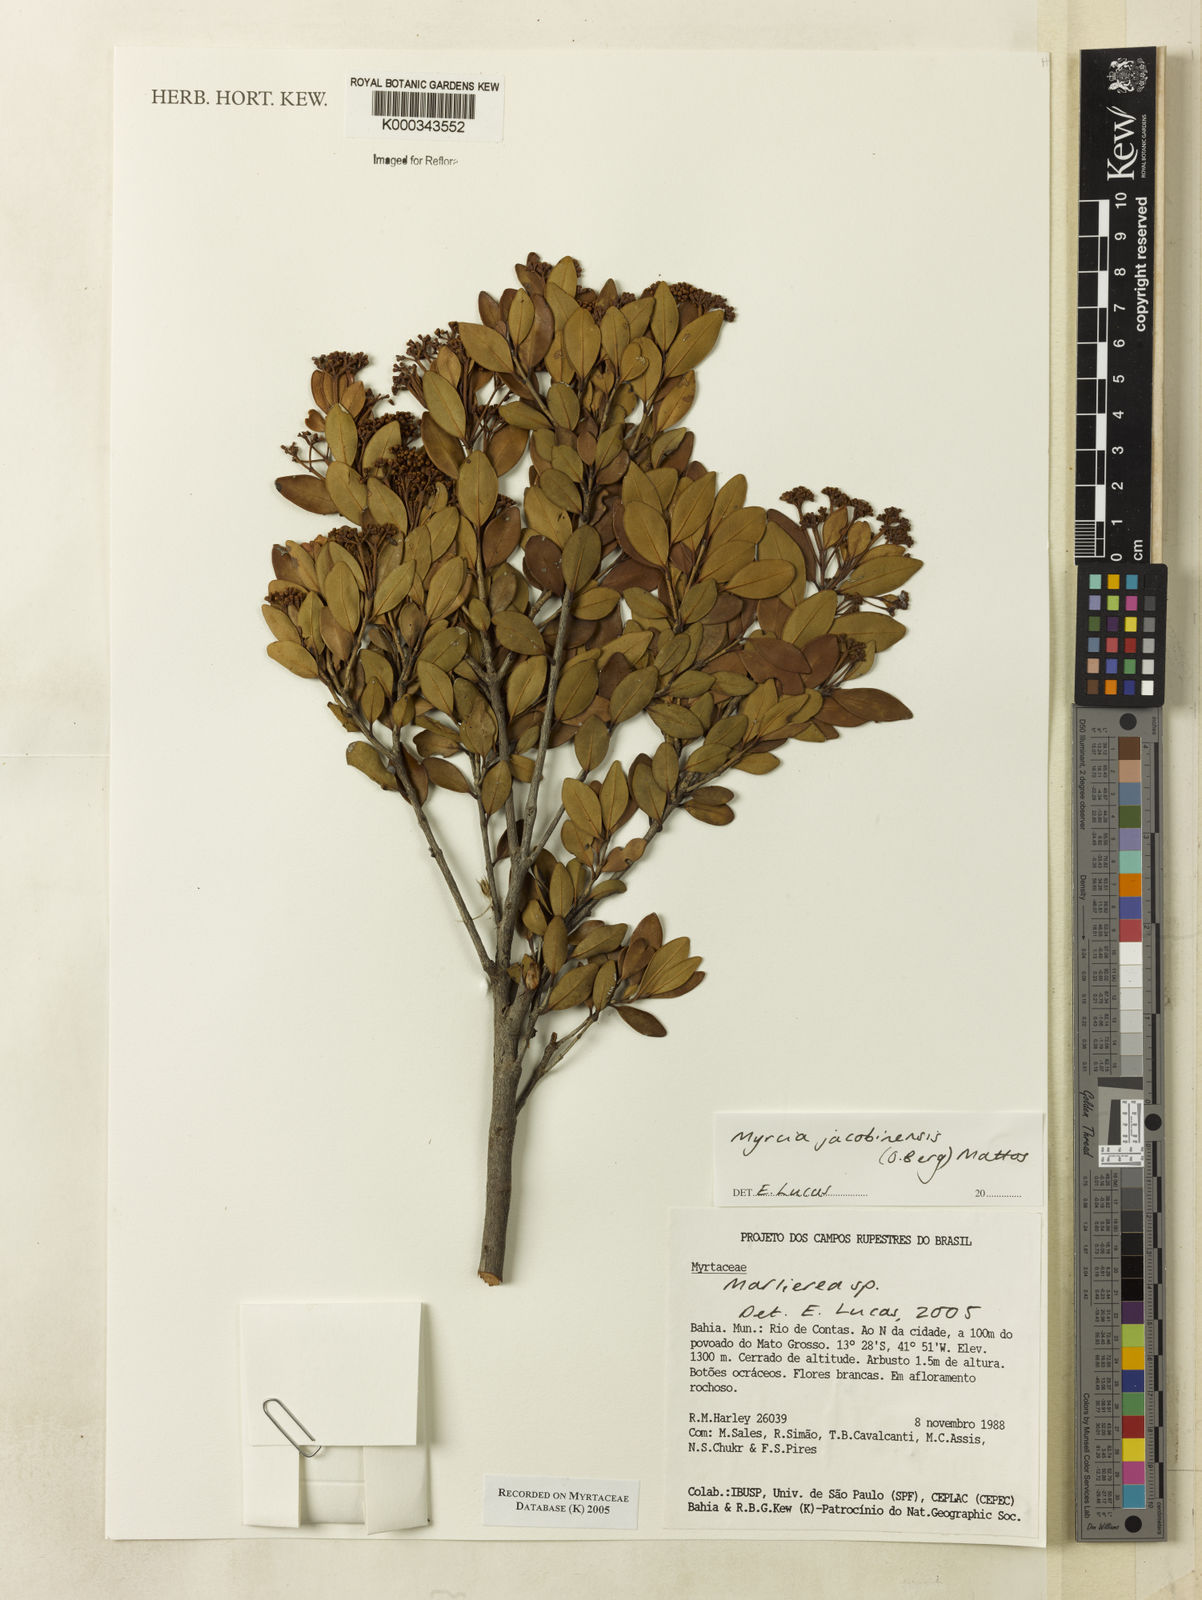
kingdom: Plantae
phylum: Tracheophyta
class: Magnoliopsida
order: Myrtales
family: Myrtaceae
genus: Myrcia
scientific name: Myrcia jacobinensis
